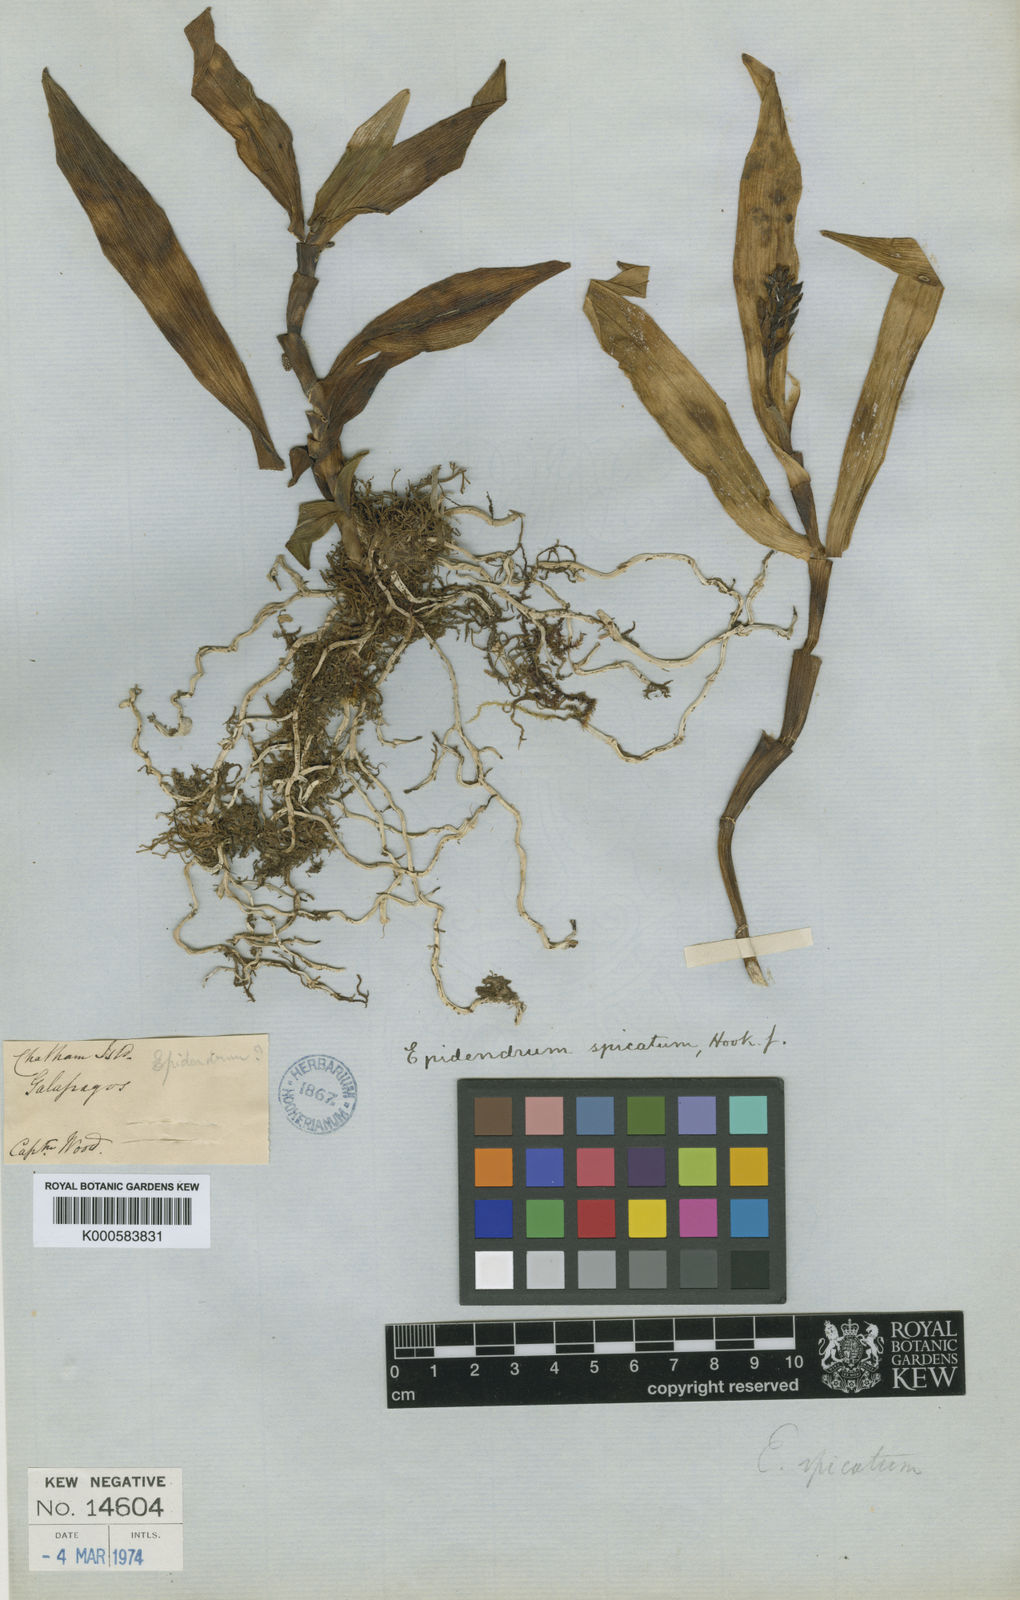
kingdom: Plantae
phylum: Tracheophyta
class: Liliopsida
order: Asparagales
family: Orchidaceae
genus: Epidendrum
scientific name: Epidendrum spicatum
